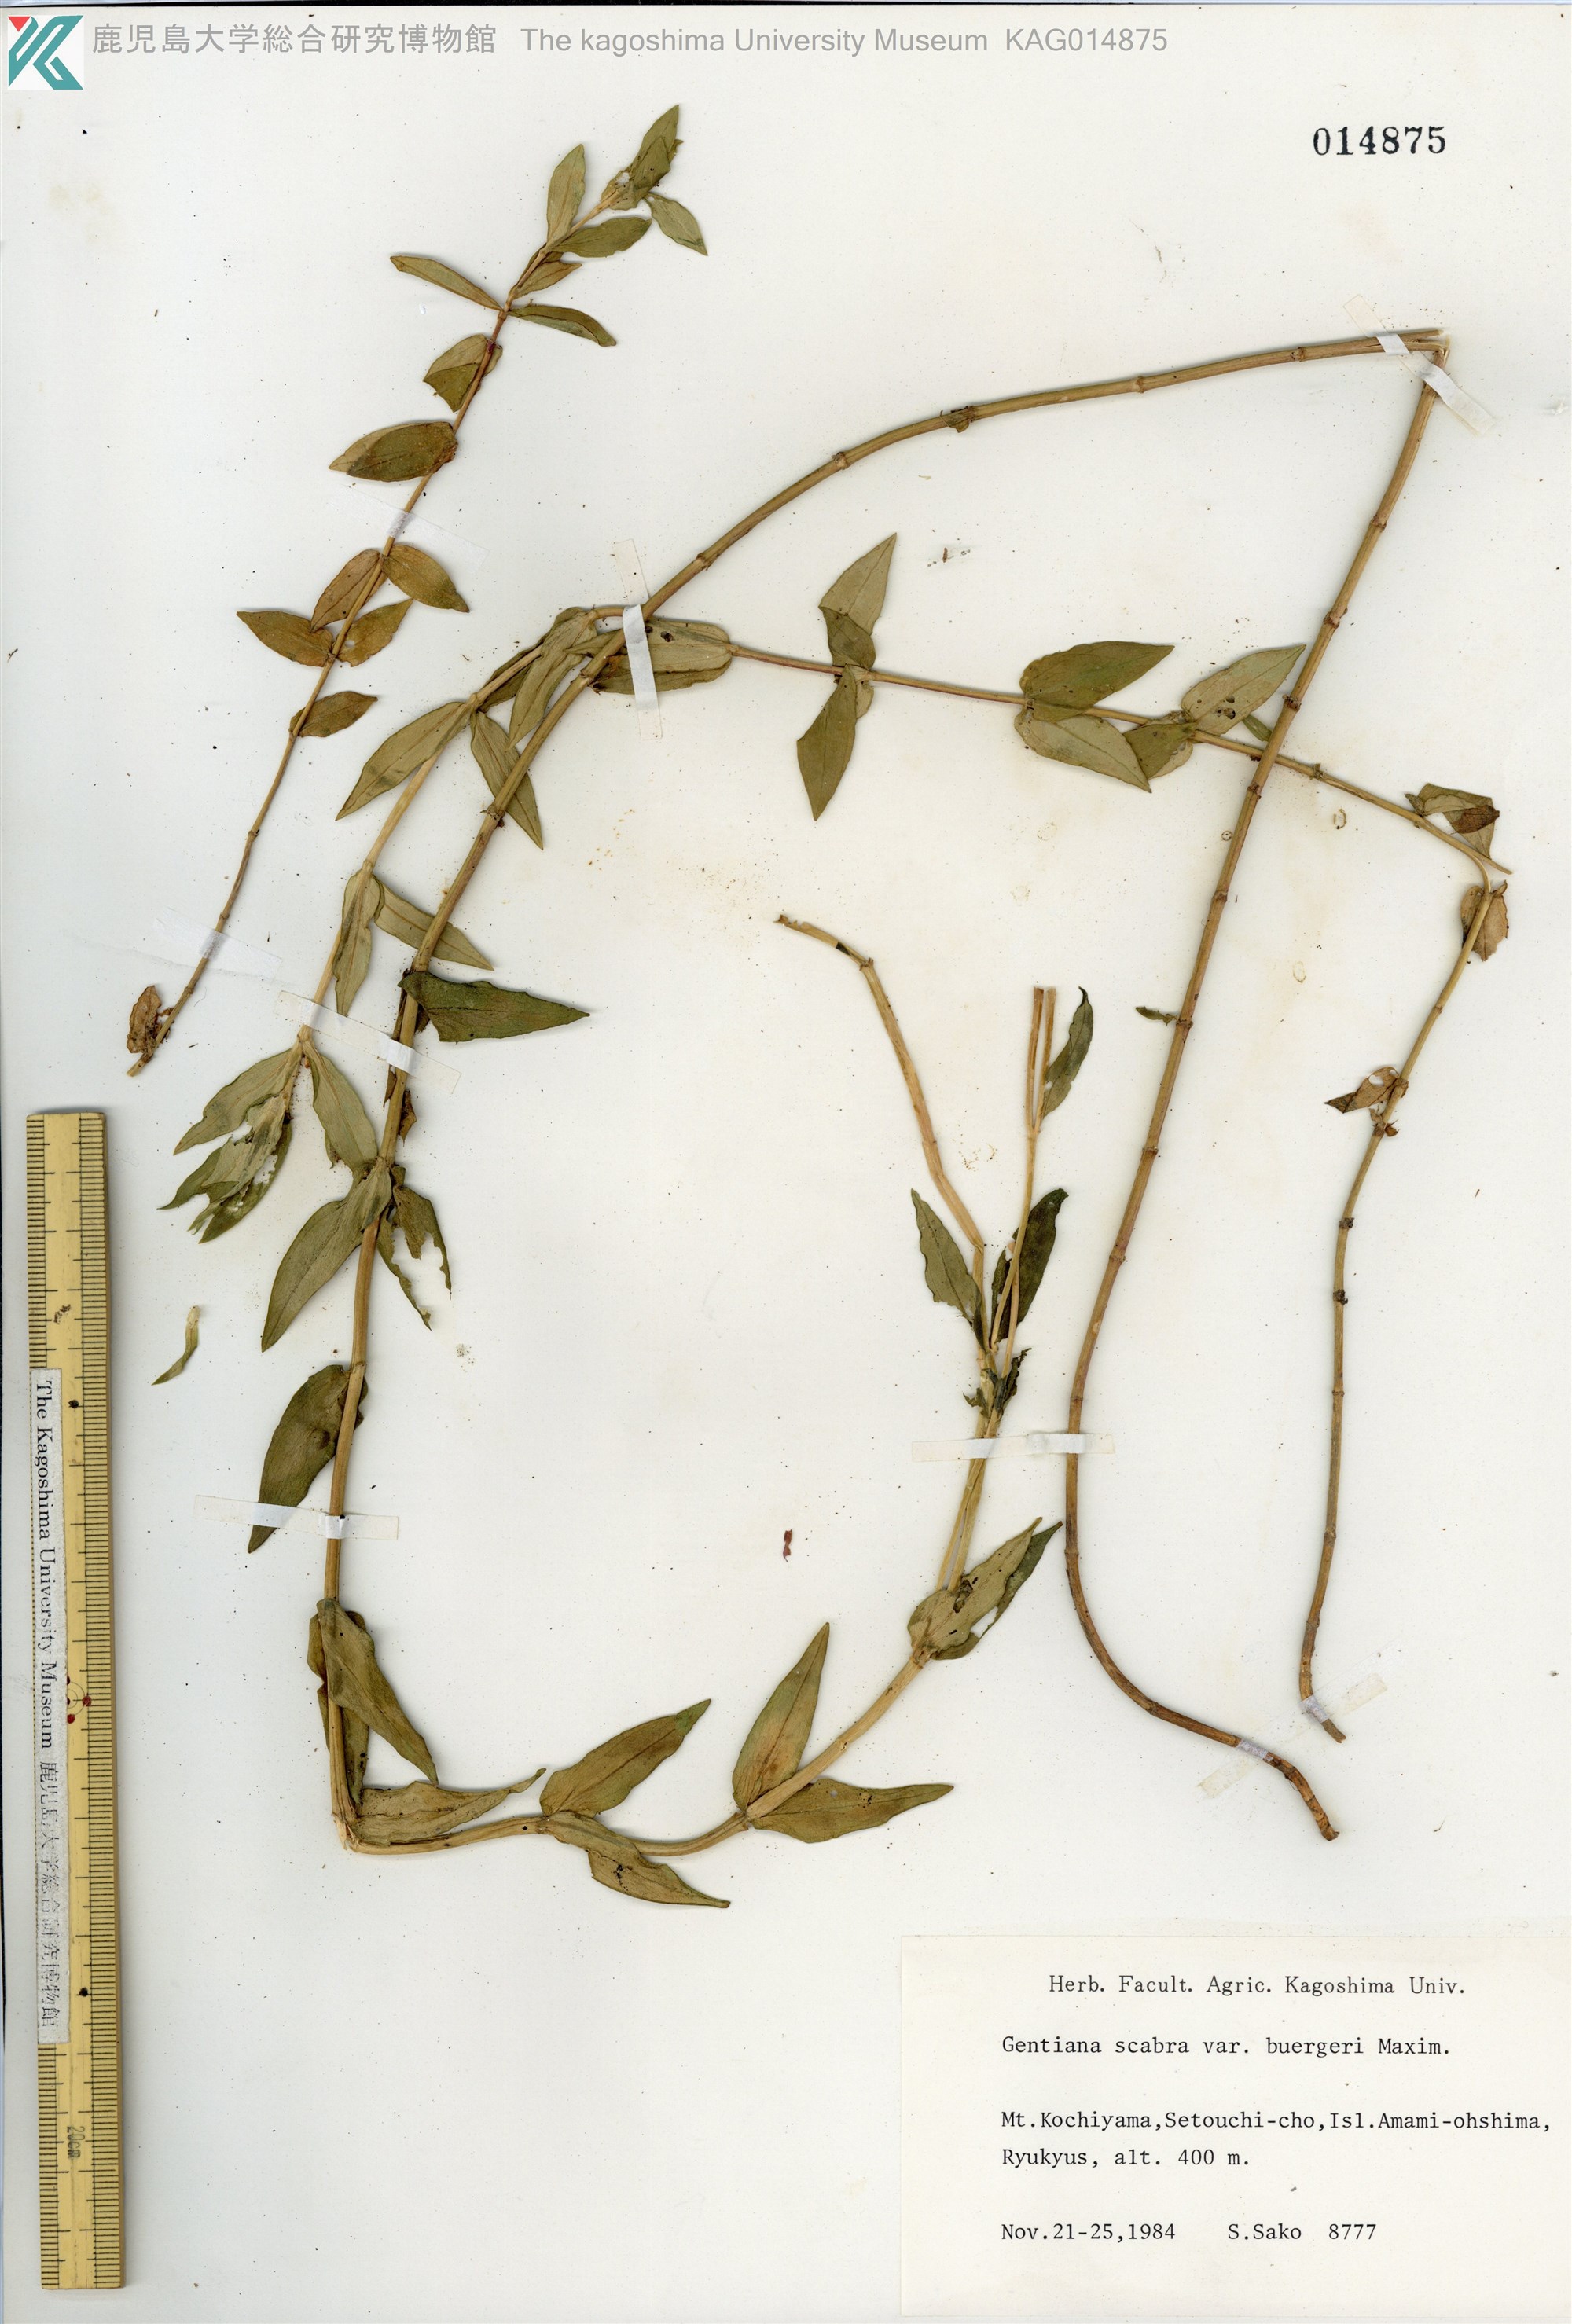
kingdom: Plantae
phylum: Tracheophyta
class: Magnoliopsida
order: Gentianales
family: Gentianaceae
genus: Gentiana
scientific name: Gentiana scabra
